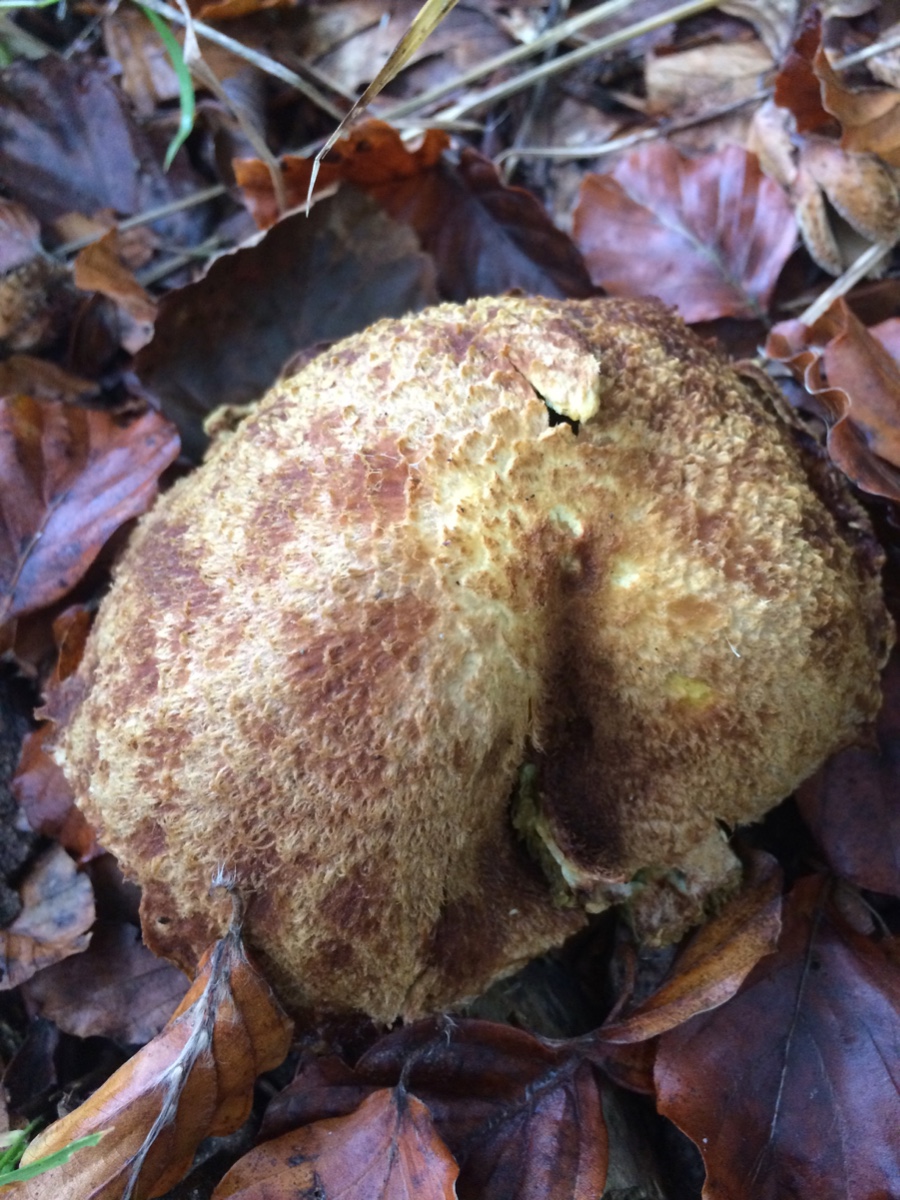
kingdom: Fungi
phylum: Basidiomycota
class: Agaricomycetes
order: Boletales
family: Suillaceae
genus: Suillus
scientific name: Suillus cavipes
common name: hulstokket slimrørhat
